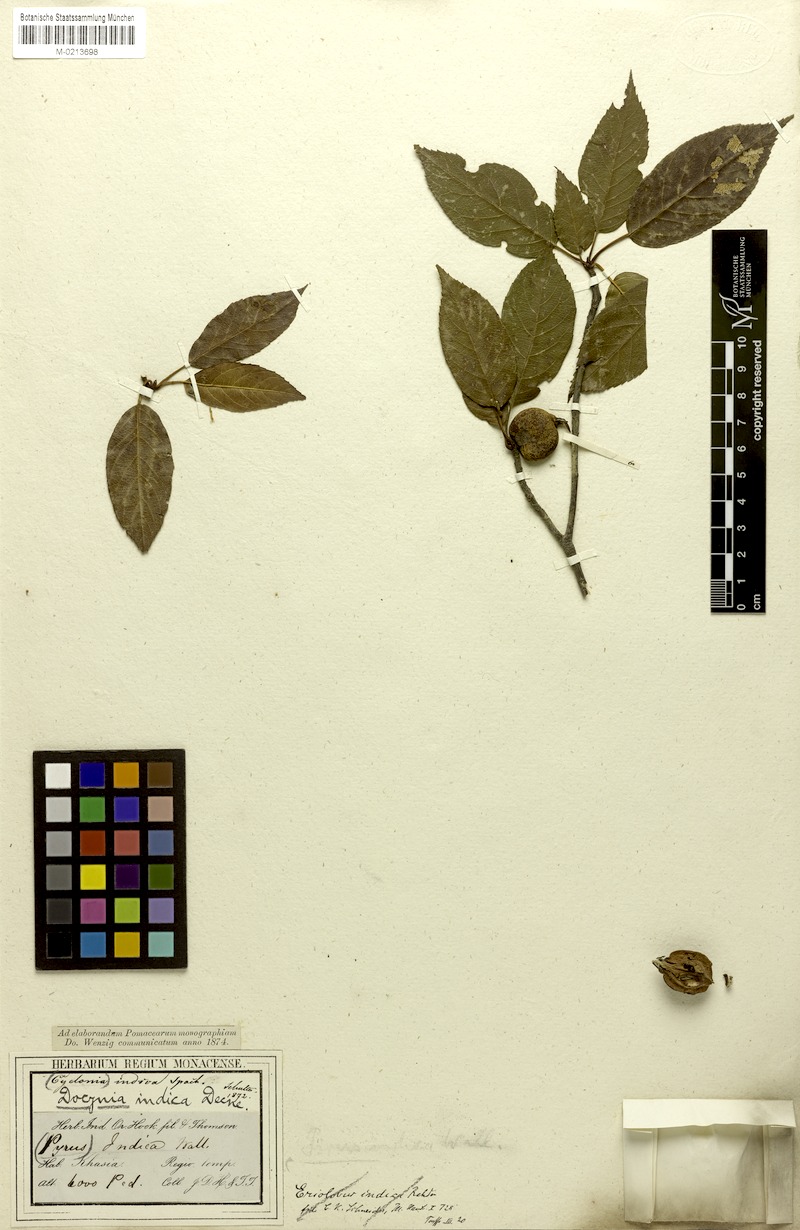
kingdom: Plantae
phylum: Tracheophyta
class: Magnoliopsida
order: Rosales
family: Rosaceae
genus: Malus
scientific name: Malus docynioides
